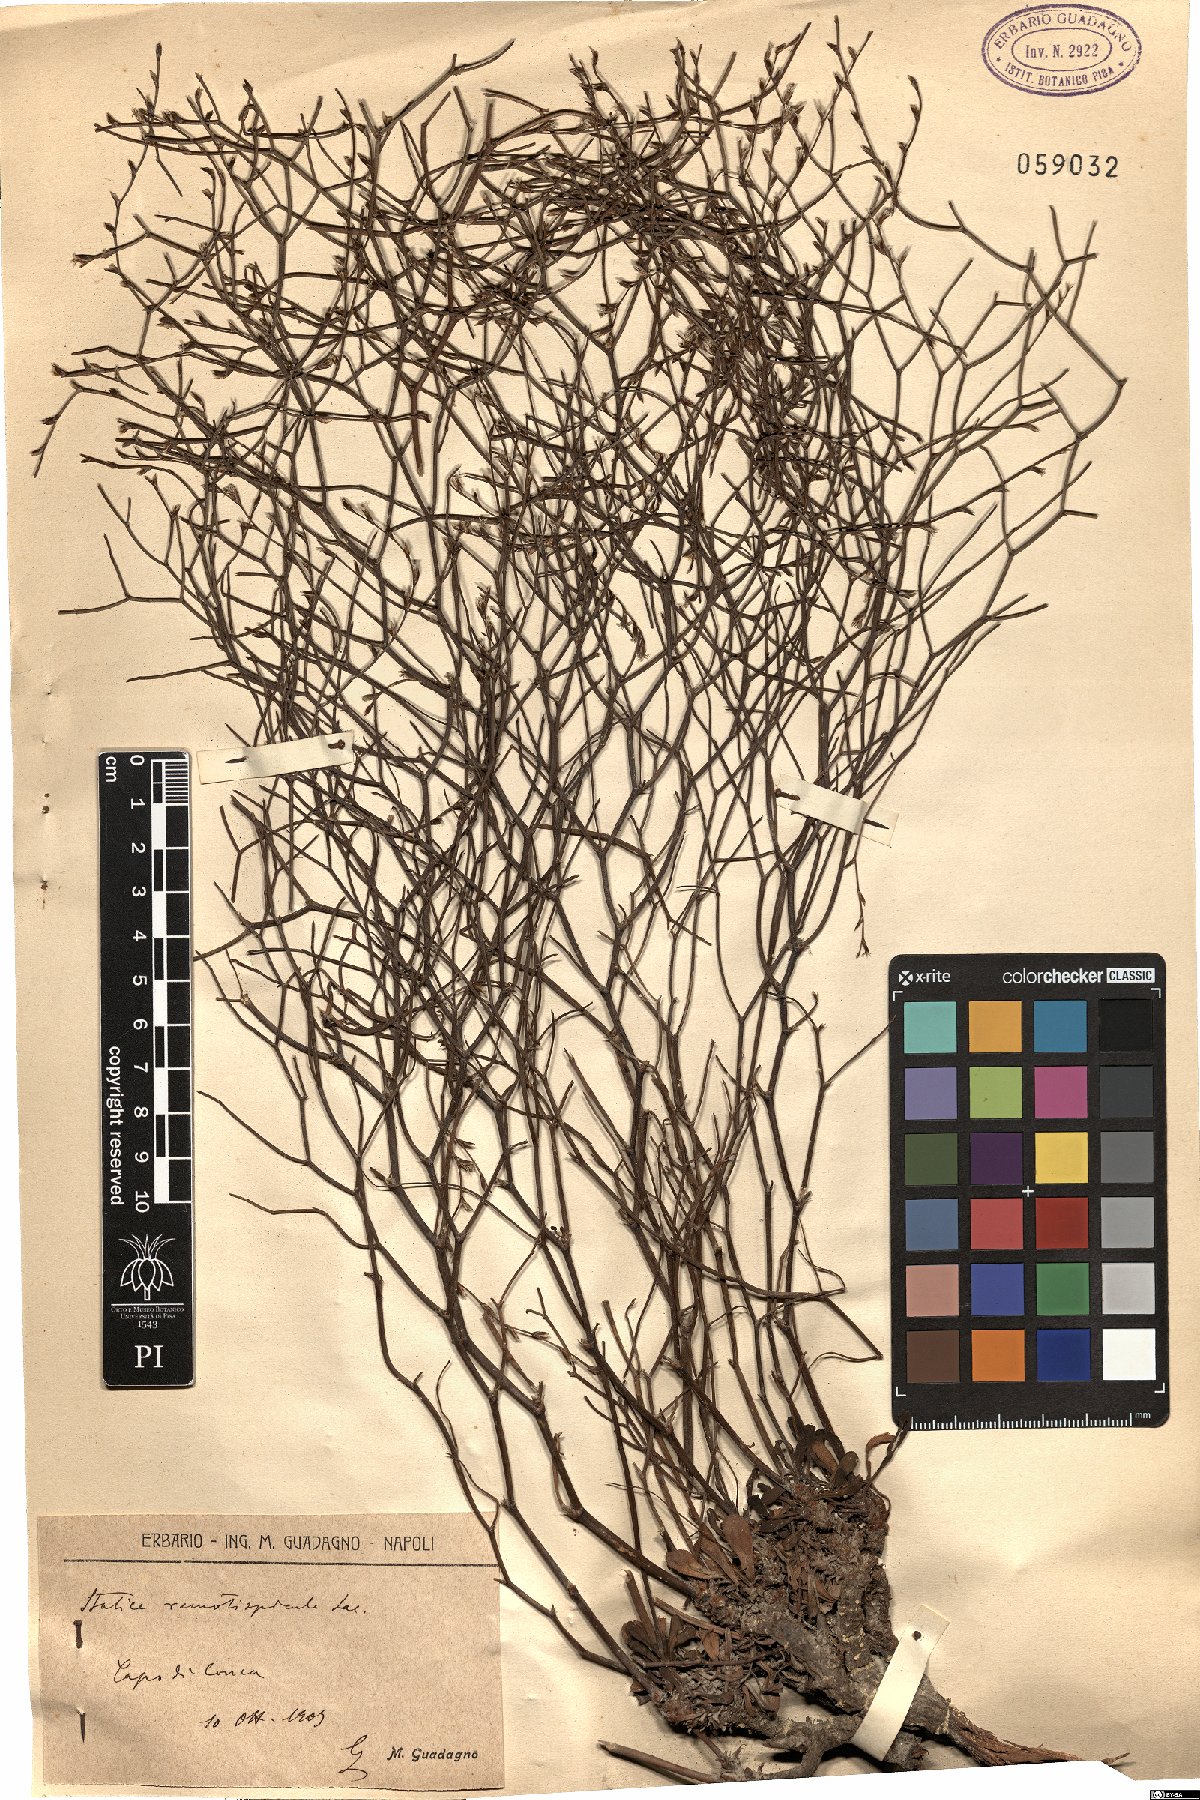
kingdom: Plantae
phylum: Tracheophyta
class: Magnoliopsida
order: Caryophyllales
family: Plumbaginaceae
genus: Limonium
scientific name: Limonium remotispiculum
